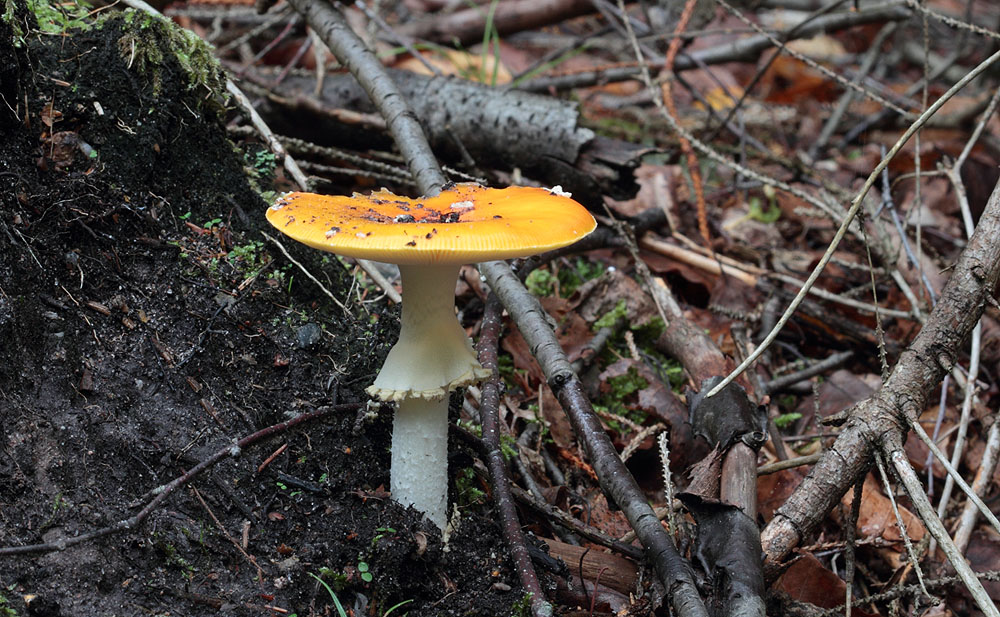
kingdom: Fungi
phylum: Basidiomycota
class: Agaricomycetes
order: Agaricales
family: Amanitaceae
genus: Amanita
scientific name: Amanita muscaria
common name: rød fluesvamp
